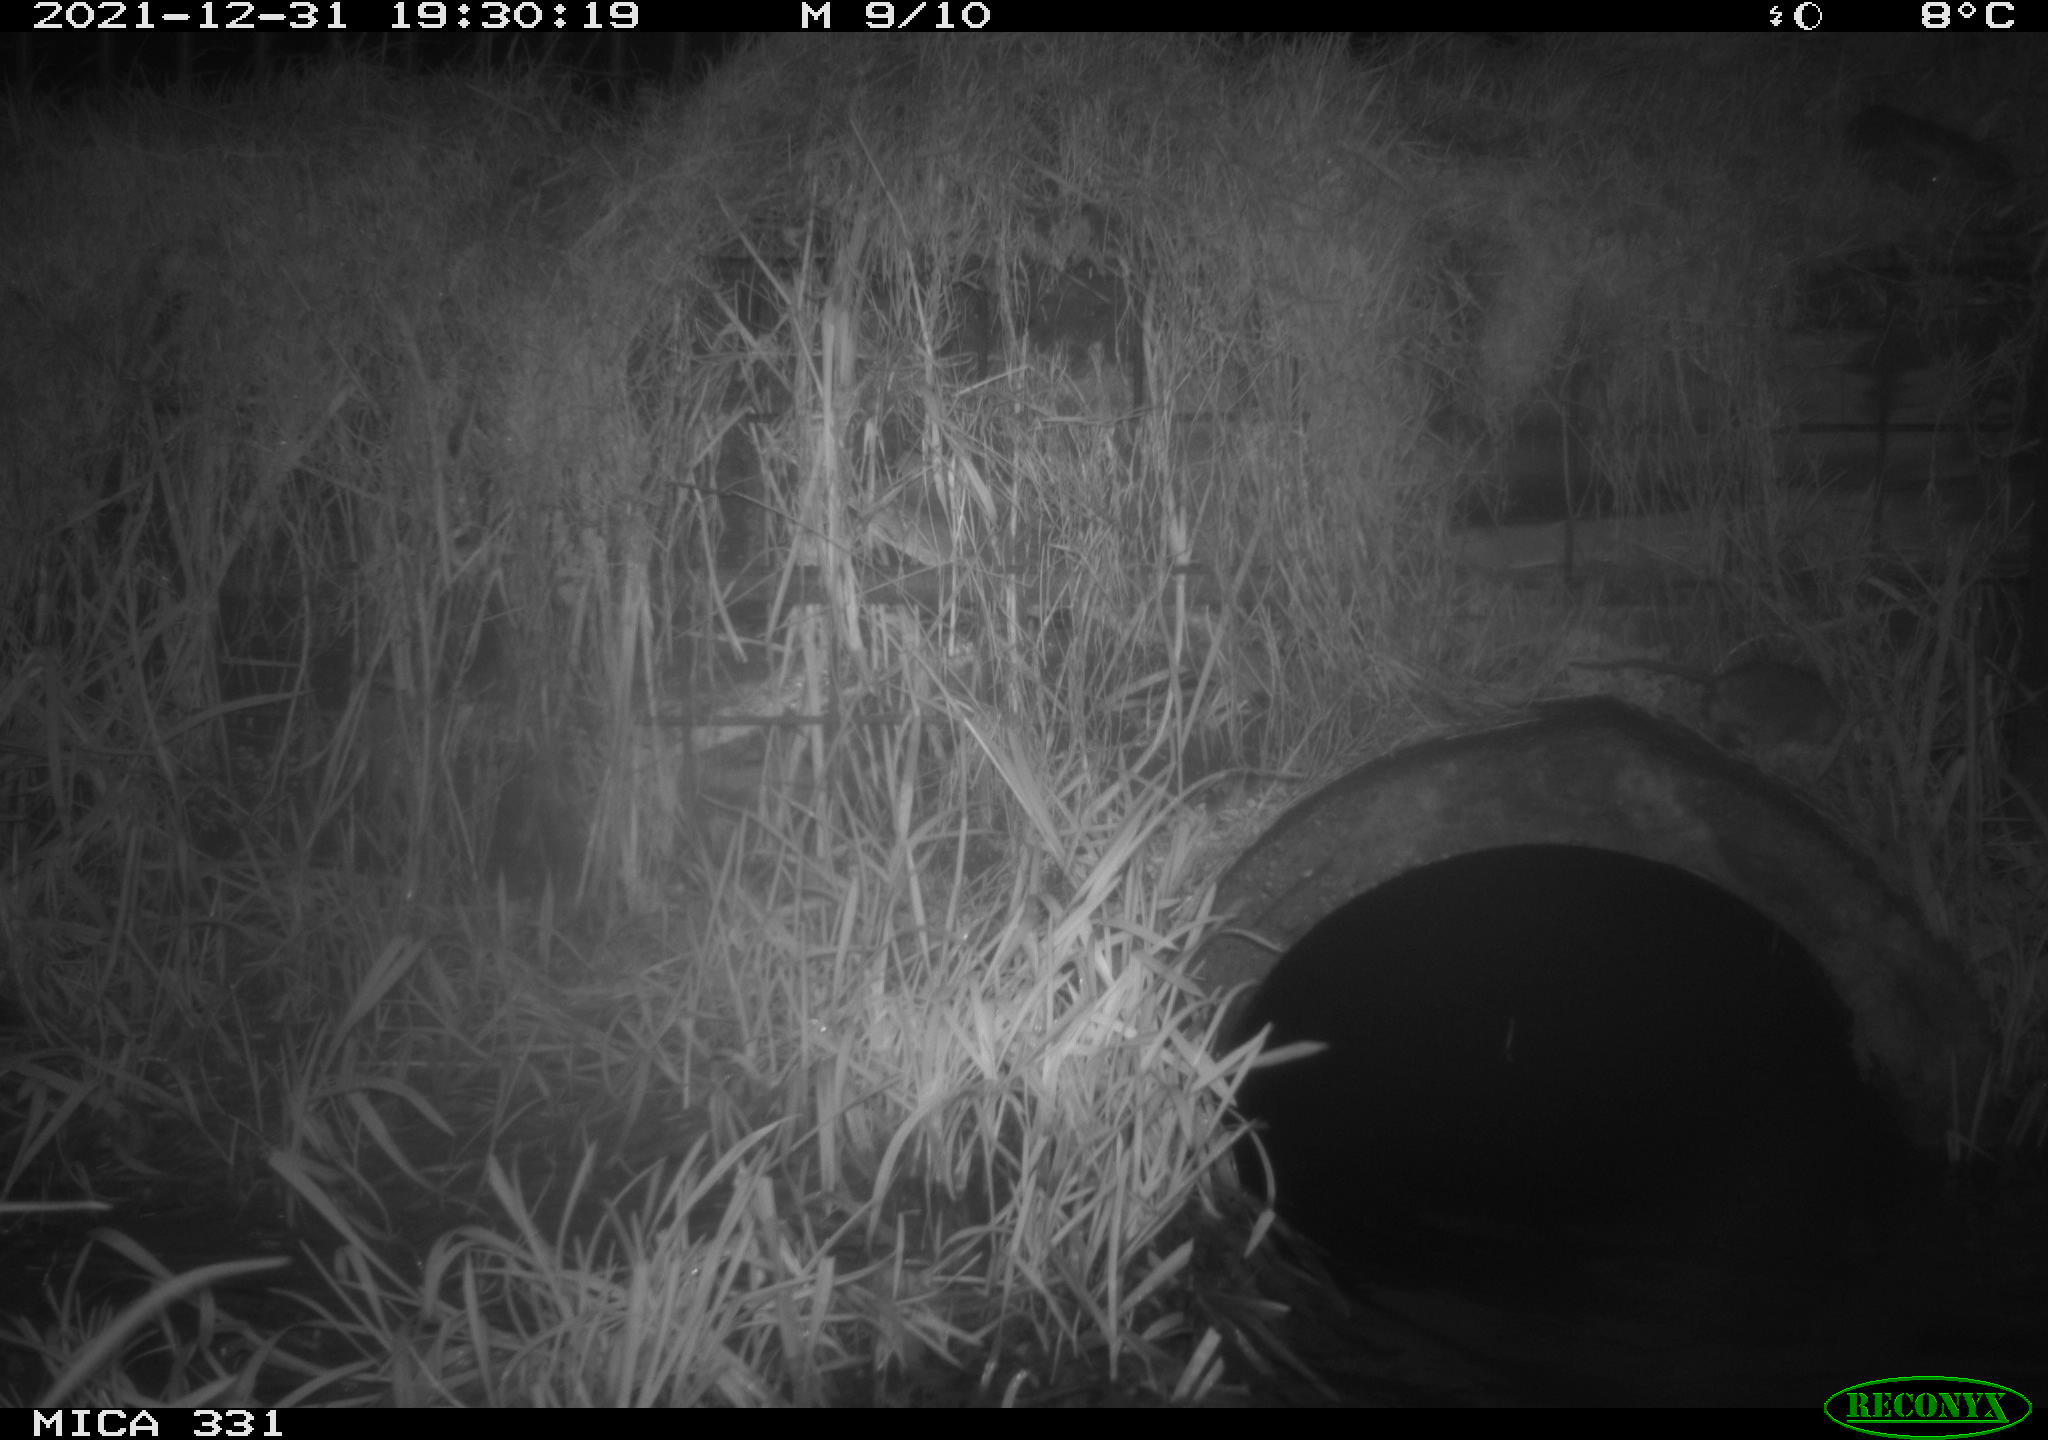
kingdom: Animalia
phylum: Chordata
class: Mammalia
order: Rodentia
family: Muridae
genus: Rattus
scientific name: Rattus norvegicus
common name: Brown rat
